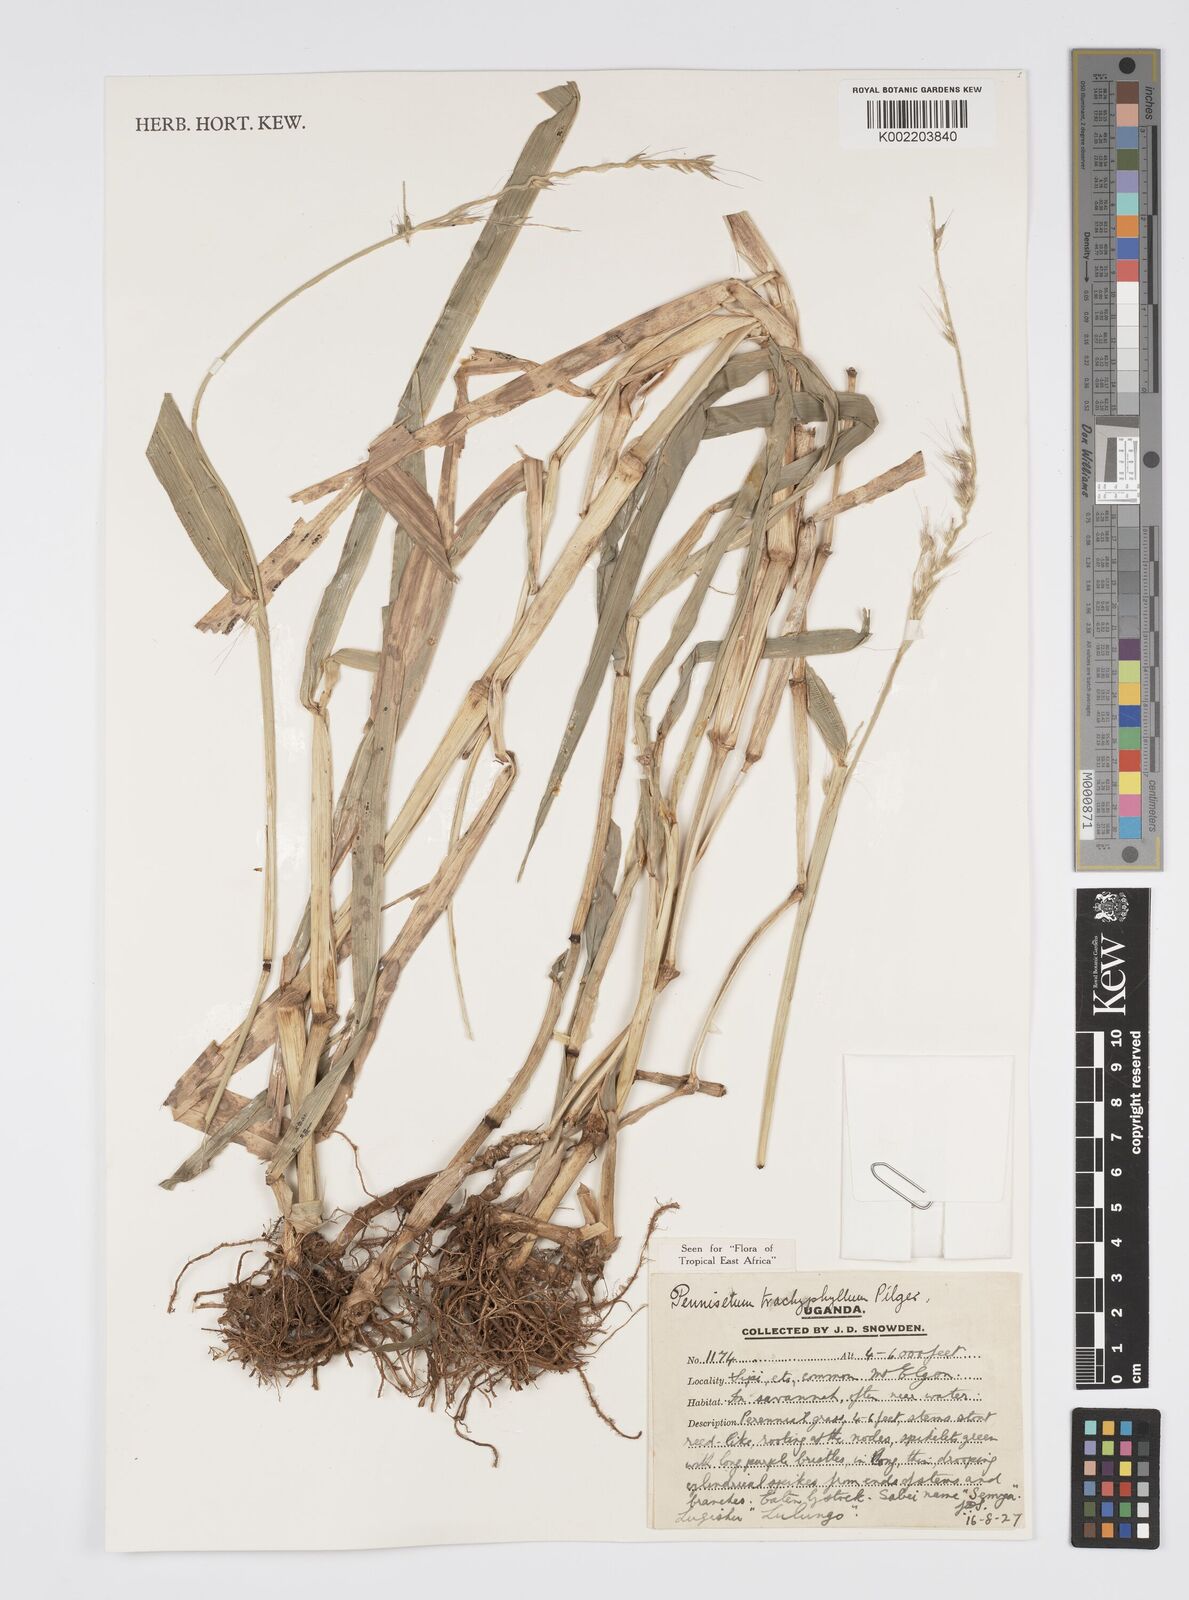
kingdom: Plantae
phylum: Tracheophyta
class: Liliopsida
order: Poales
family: Poaceae
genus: Cenchrus
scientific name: Cenchrus trachyphyllus
